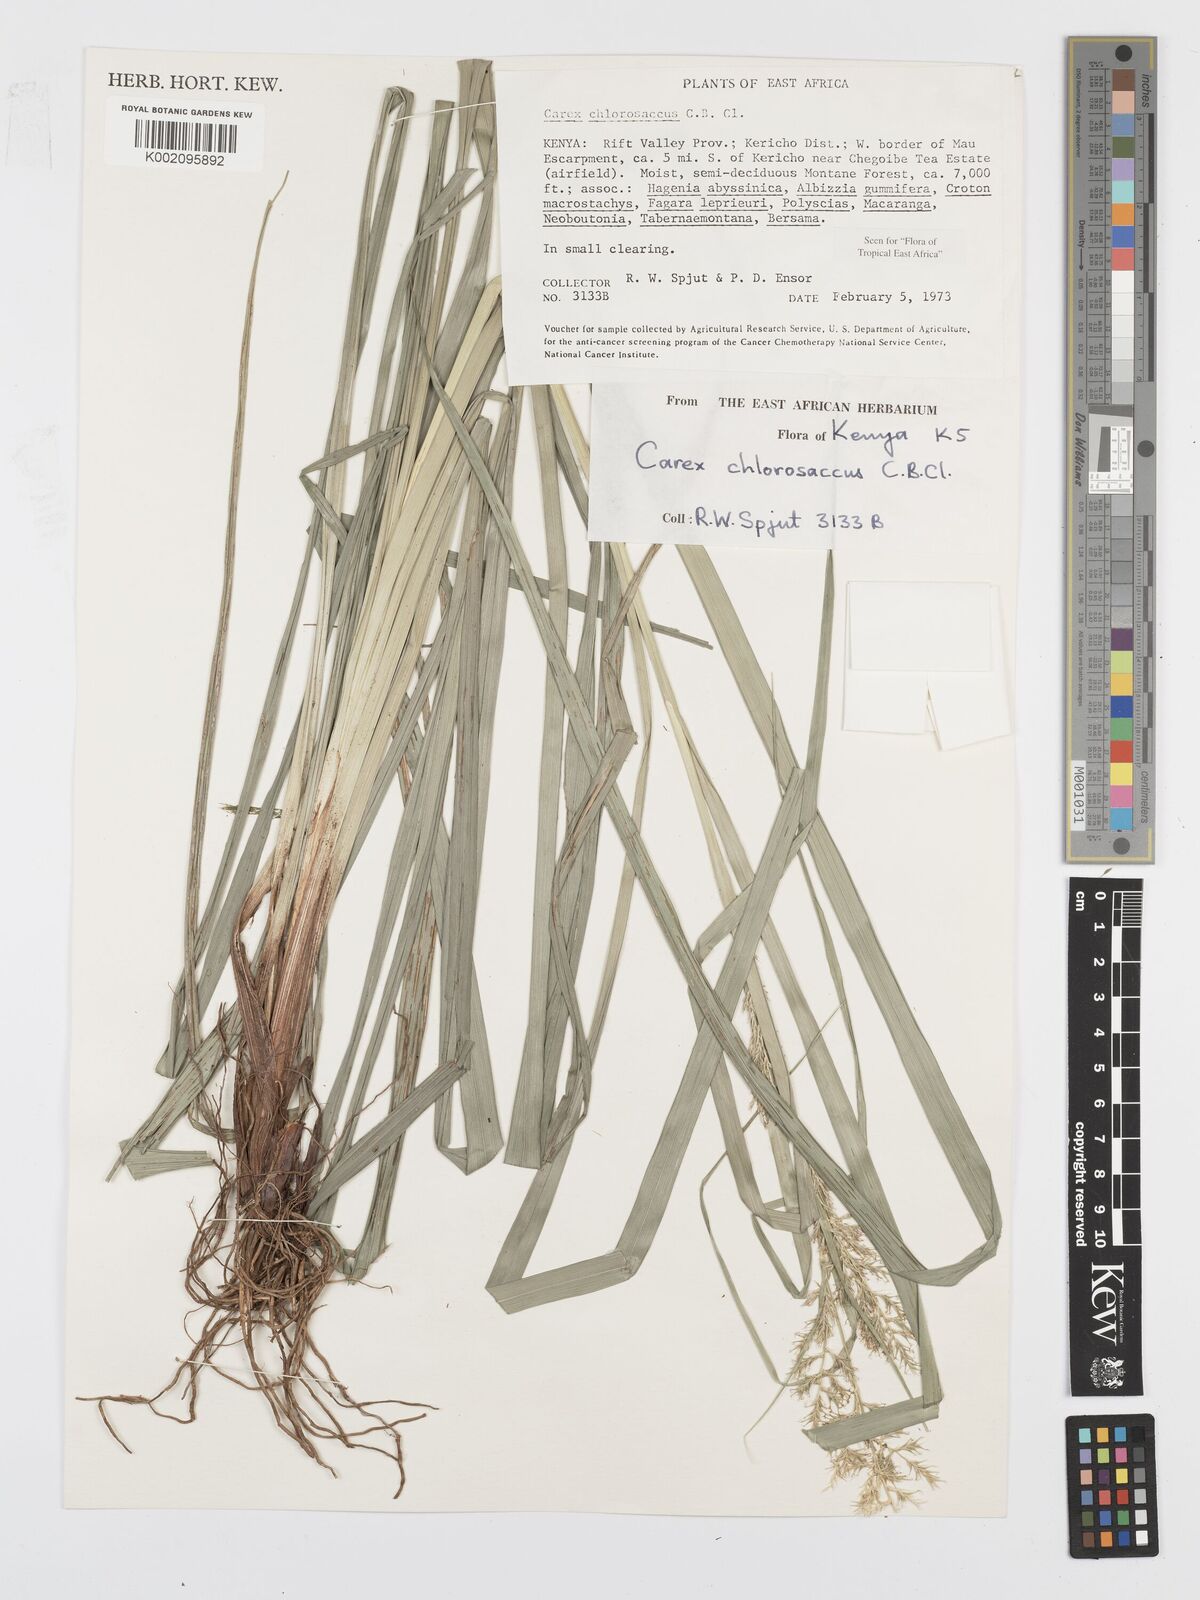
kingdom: Plantae
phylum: Tracheophyta
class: Liliopsida
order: Poales
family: Cyperaceae
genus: Carex
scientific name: Carex chlorosaccus
